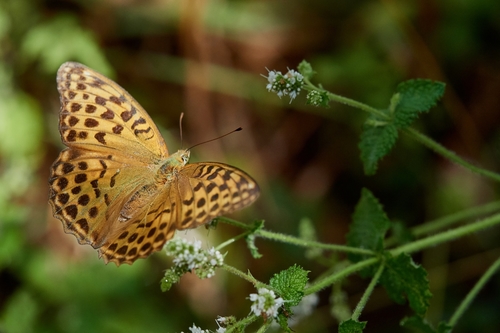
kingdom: Animalia
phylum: Arthropoda
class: Insecta
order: Lepidoptera
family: Nymphalidae
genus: Argynnis
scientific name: Argynnis paphia
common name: Silver-washed fritillary
